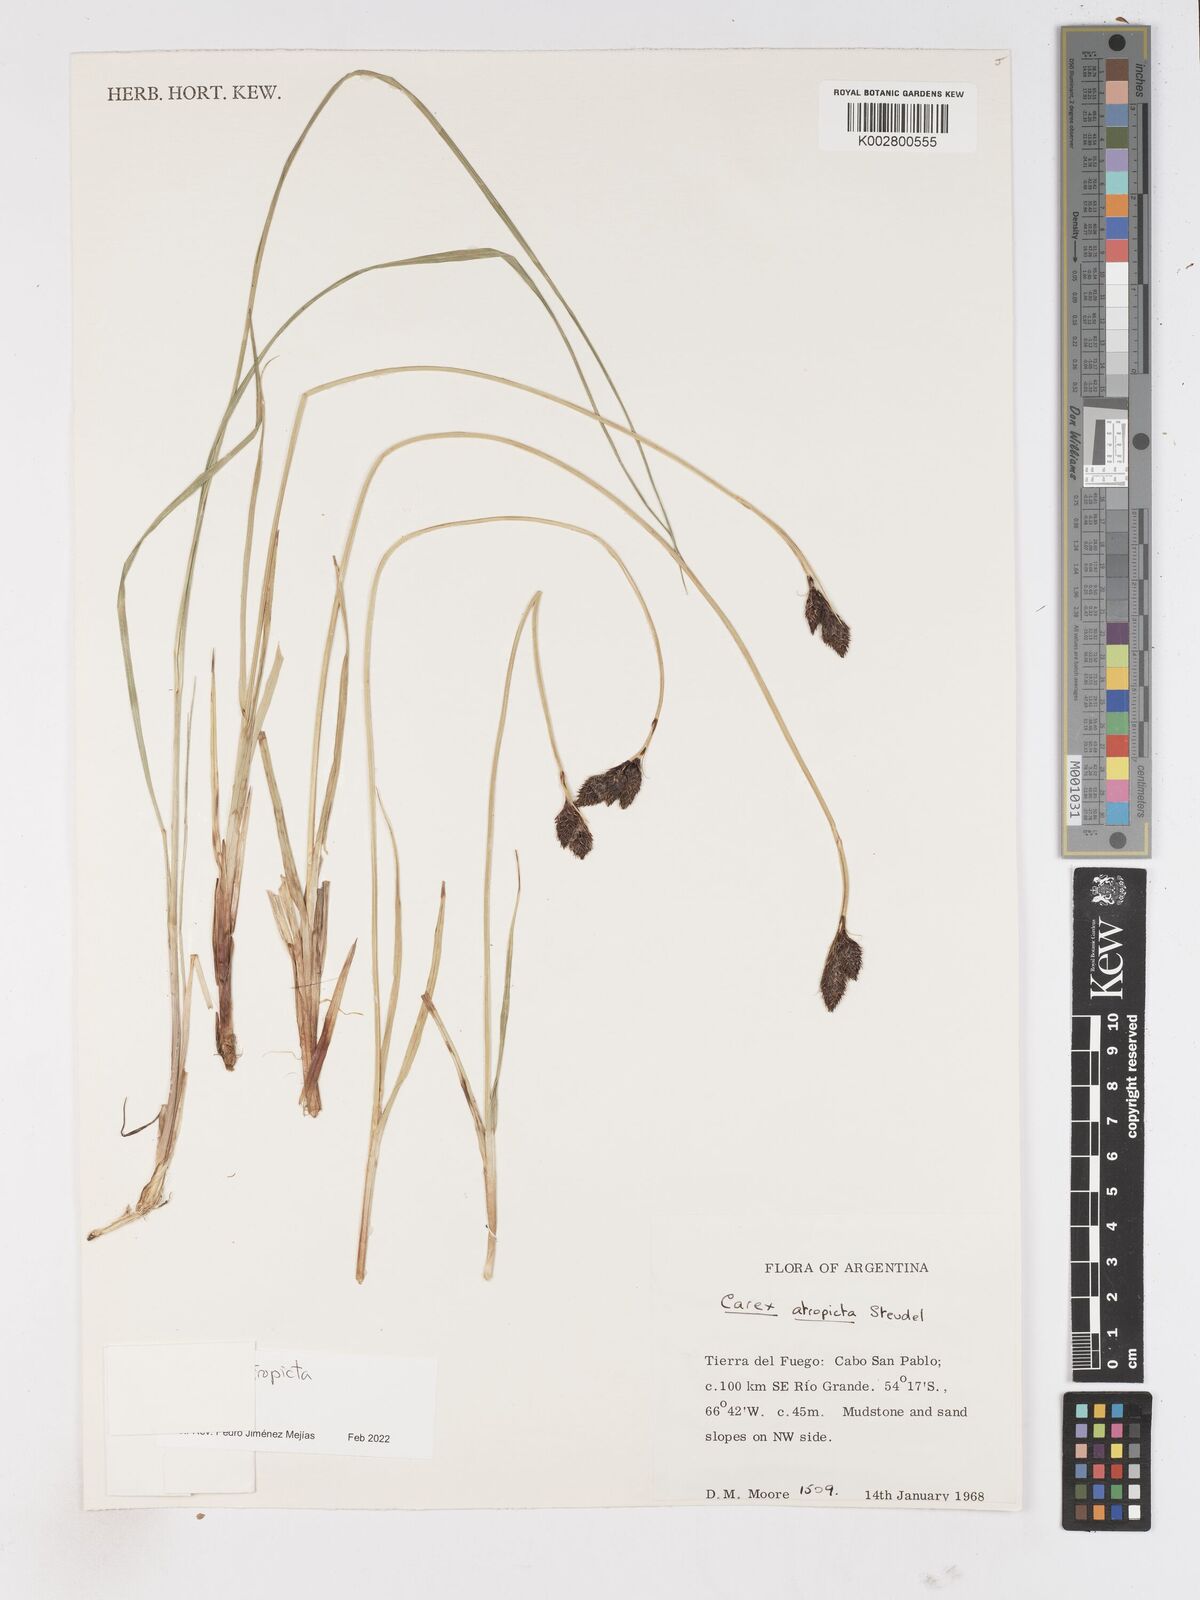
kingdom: Plantae
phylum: Tracheophyta
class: Liliopsida
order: Poales
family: Cyperaceae
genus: Carex
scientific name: Carex atropicta
